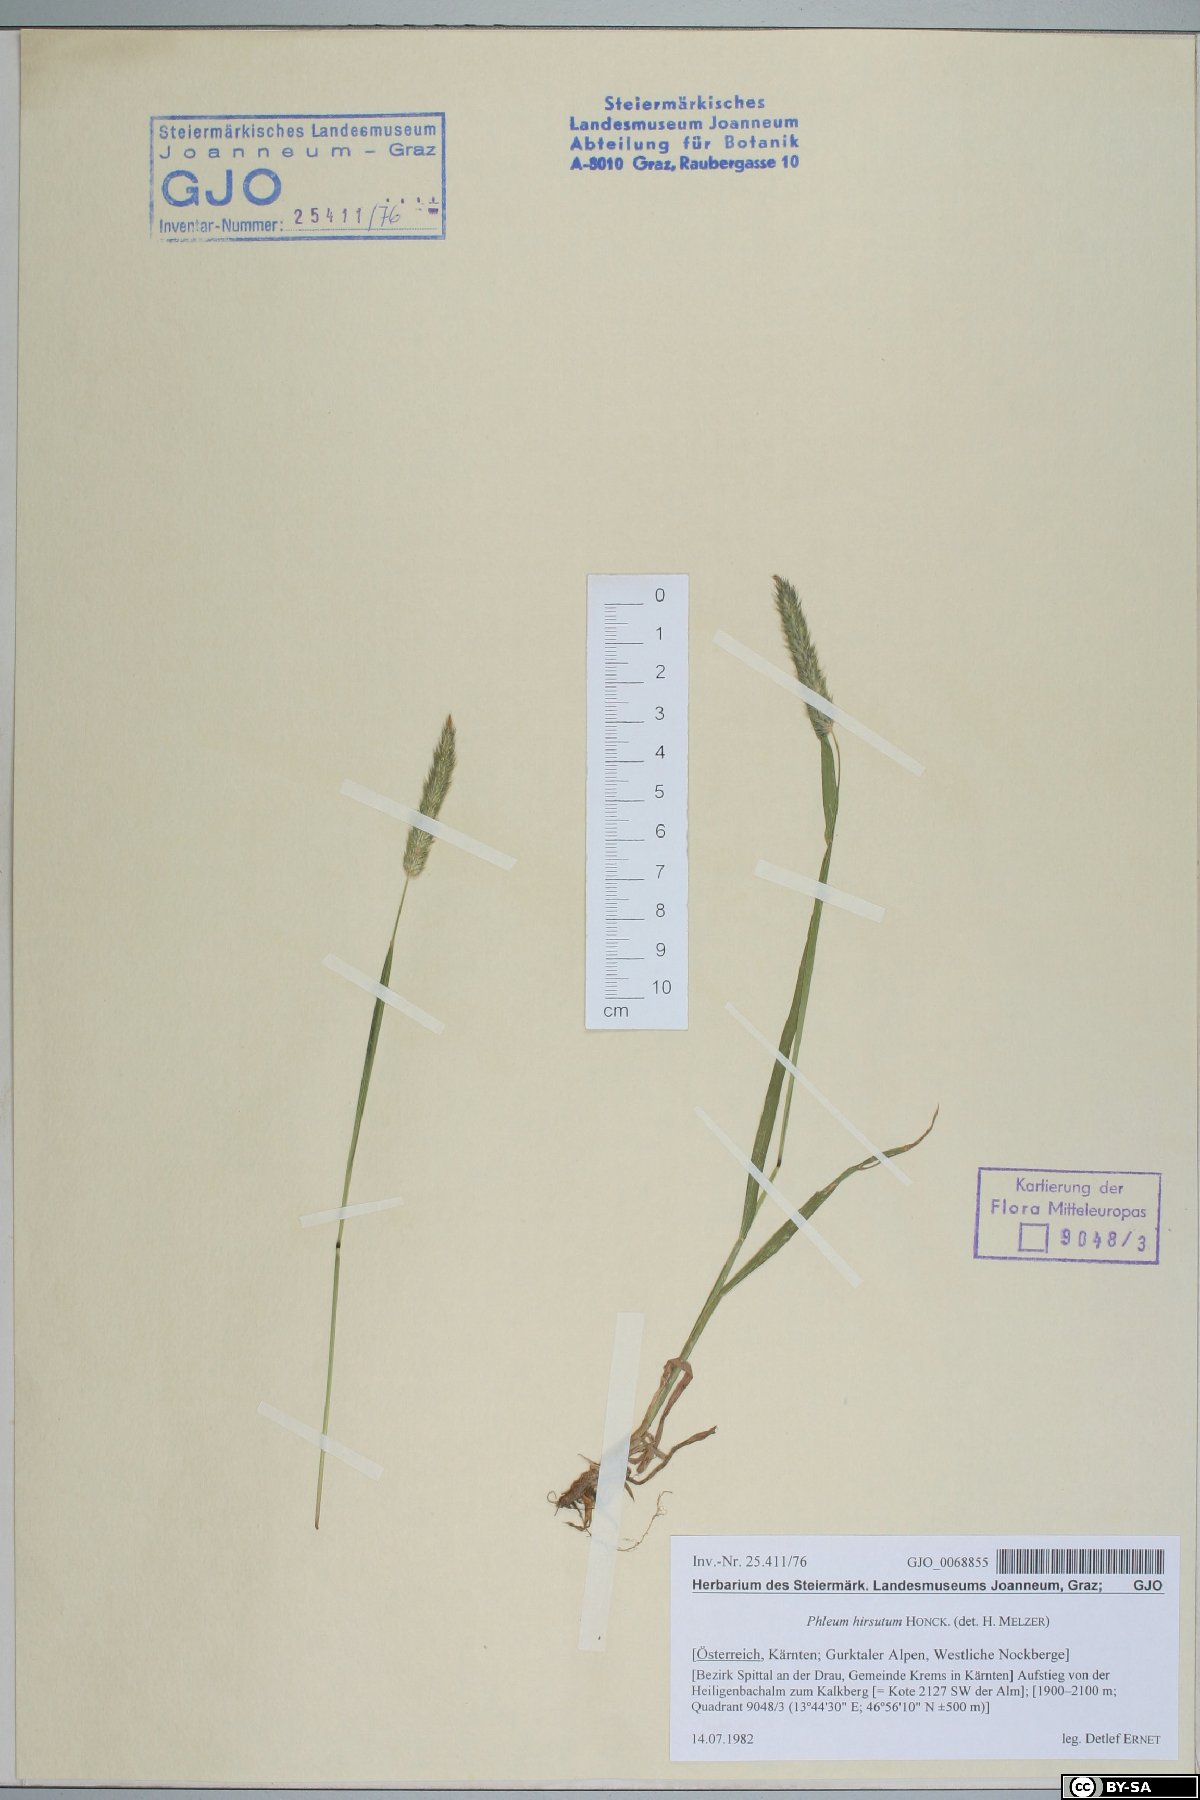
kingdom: Plantae
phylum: Tracheophyta
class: Liliopsida
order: Poales
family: Poaceae
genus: Phleum
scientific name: Phleum hirsutum
